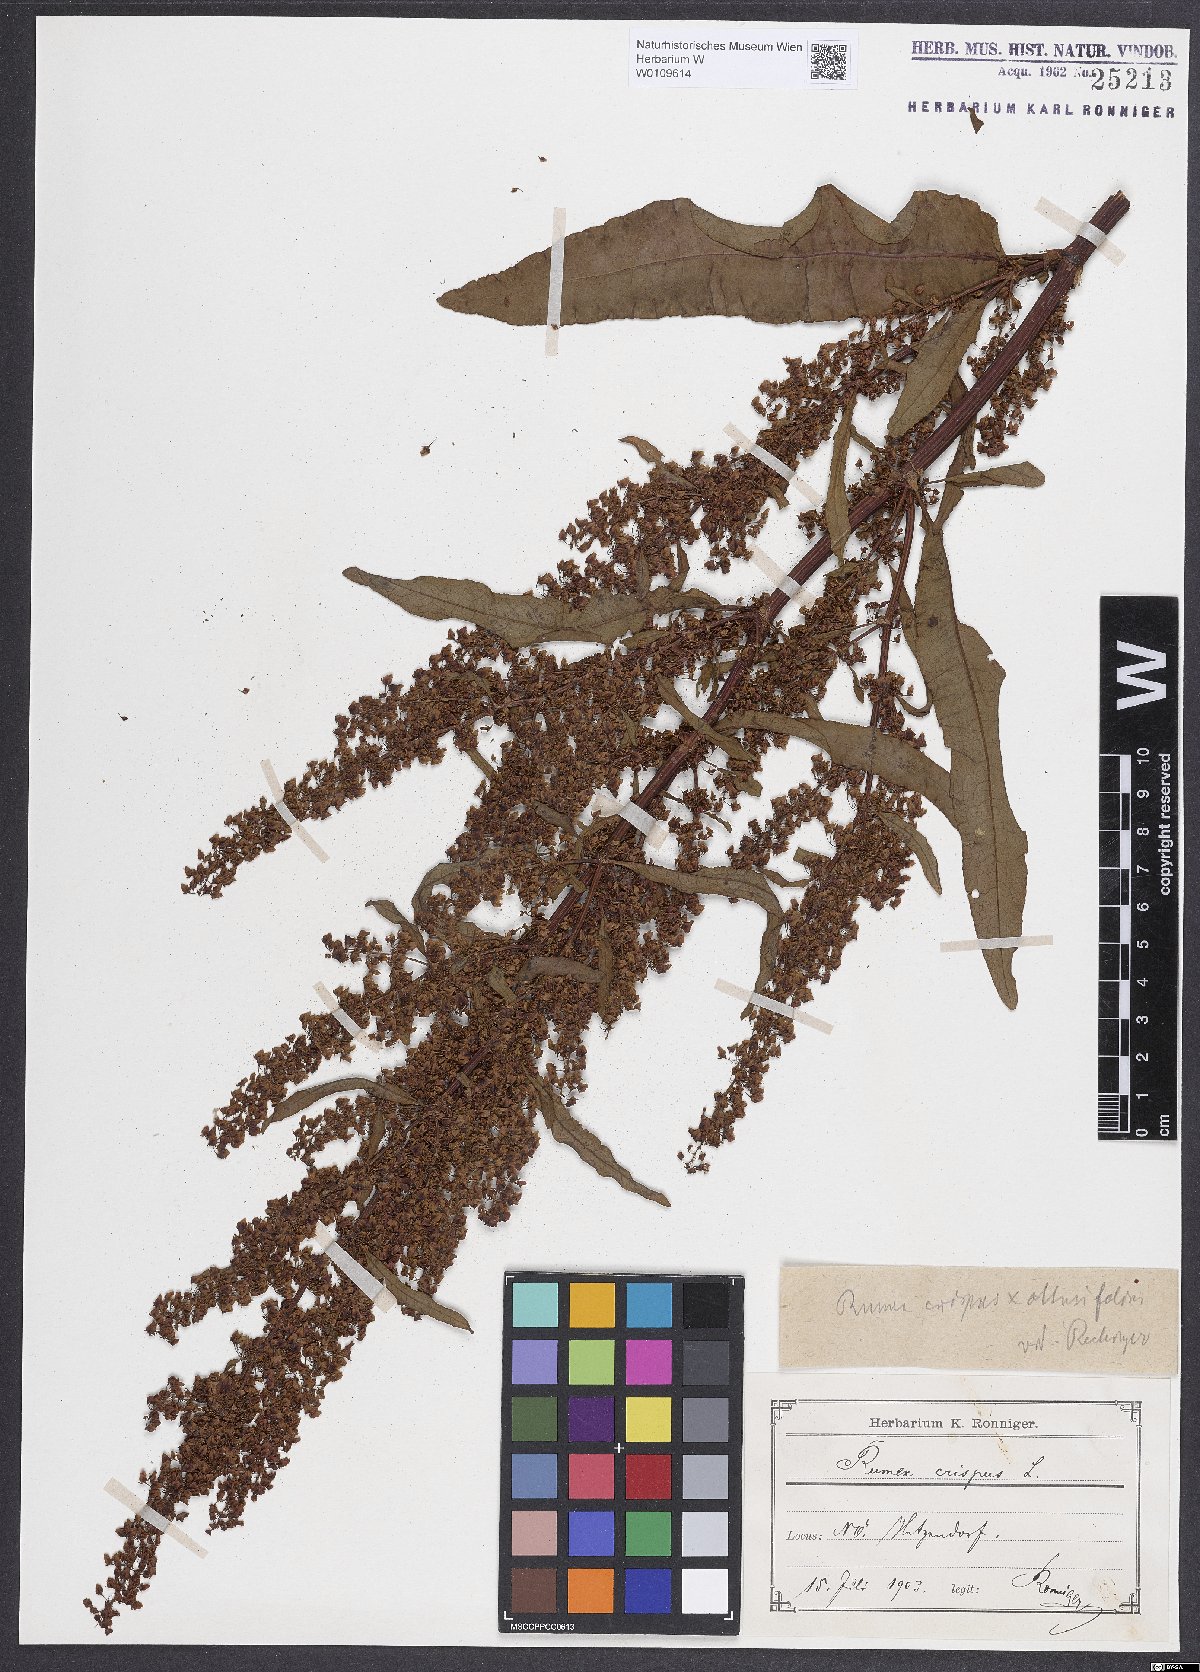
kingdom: Plantae
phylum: Tracheophyta
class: Magnoliopsida
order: Caryophyllales
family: Polygonaceae
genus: Rumex
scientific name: Rumex crispus
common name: Curled dock
